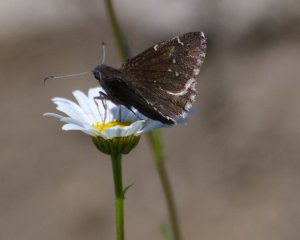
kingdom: Animalia
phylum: Arthropoda
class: Insecta
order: Lepidoptera
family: Hesperiidae
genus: Autochton
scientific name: Autochton
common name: Northern Cloudywing
